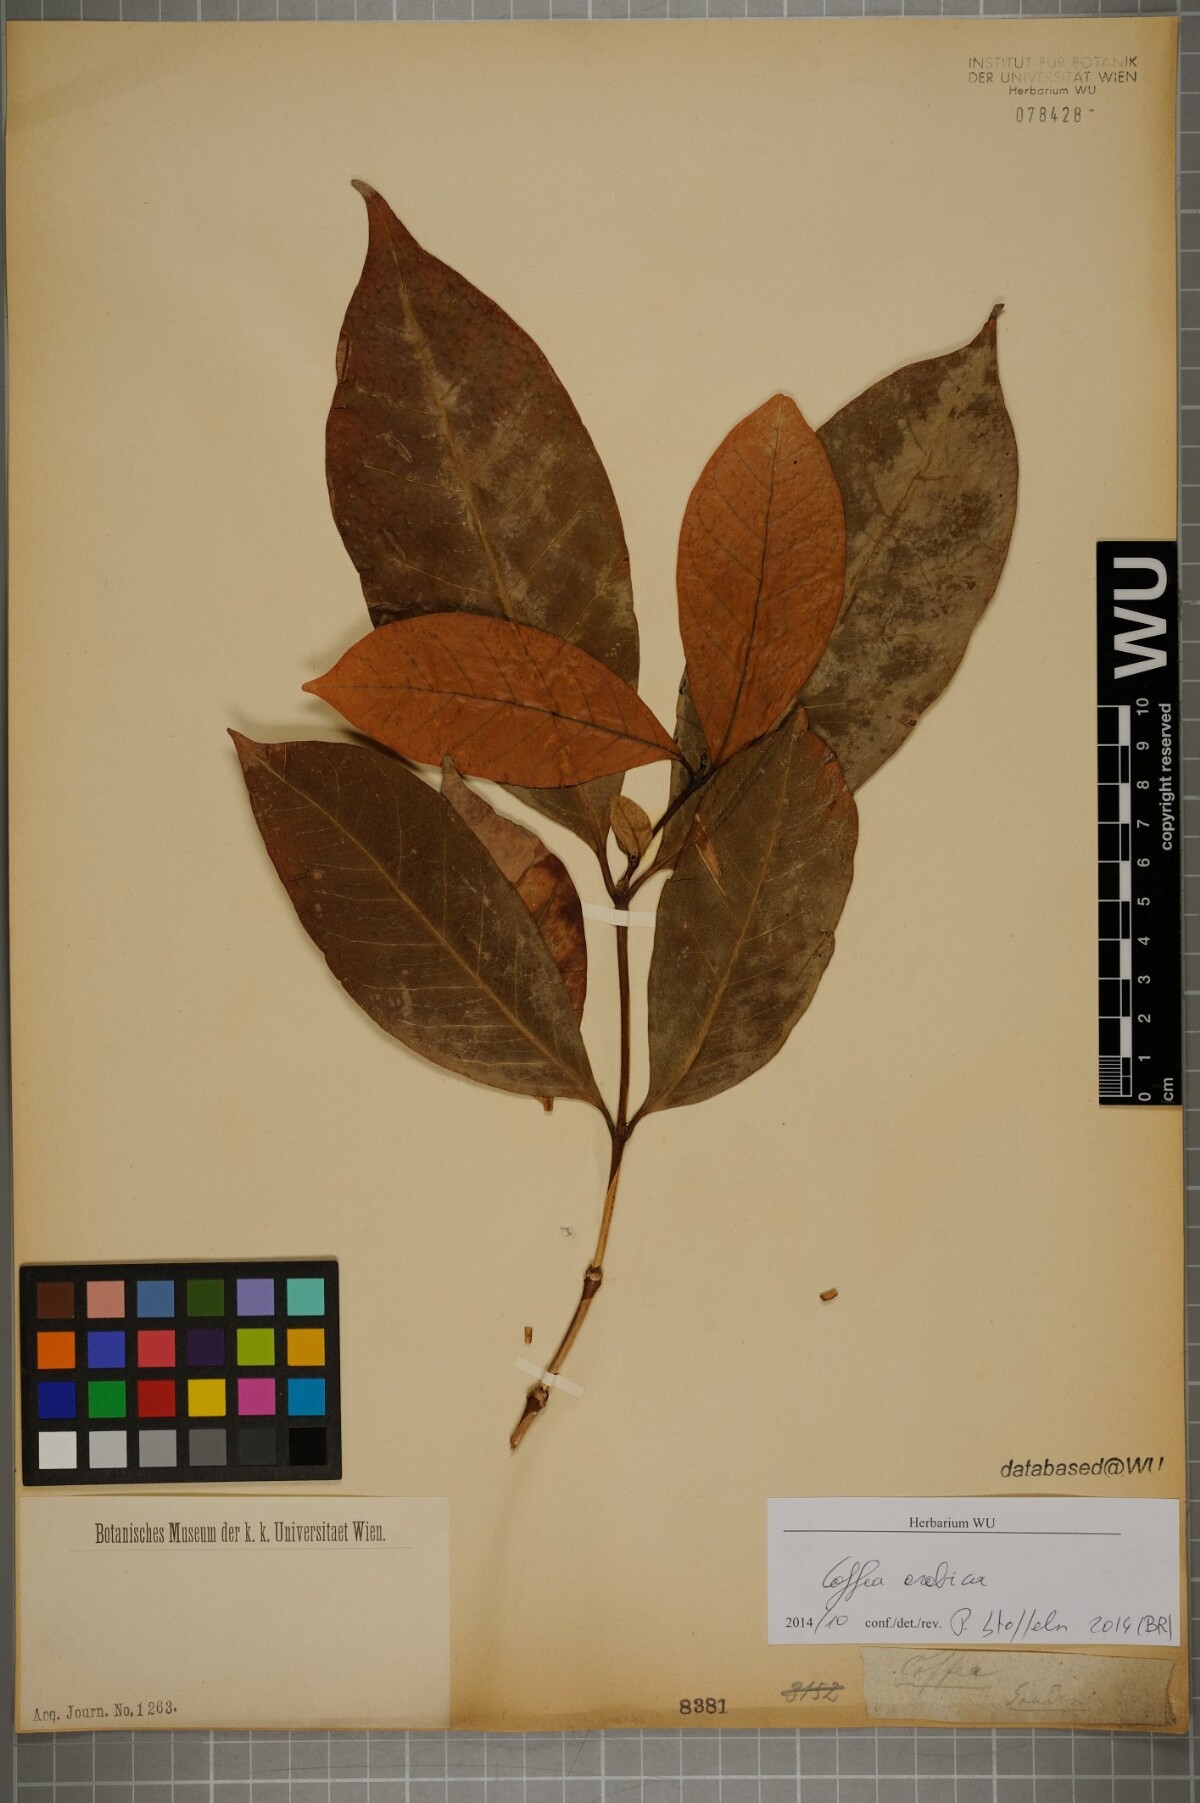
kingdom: Plantae
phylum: Tracheophyta
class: Magnoliopsida
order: Gentianales
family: Rubiaceae
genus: Coffea
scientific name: Coffea arabica
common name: Coffee
